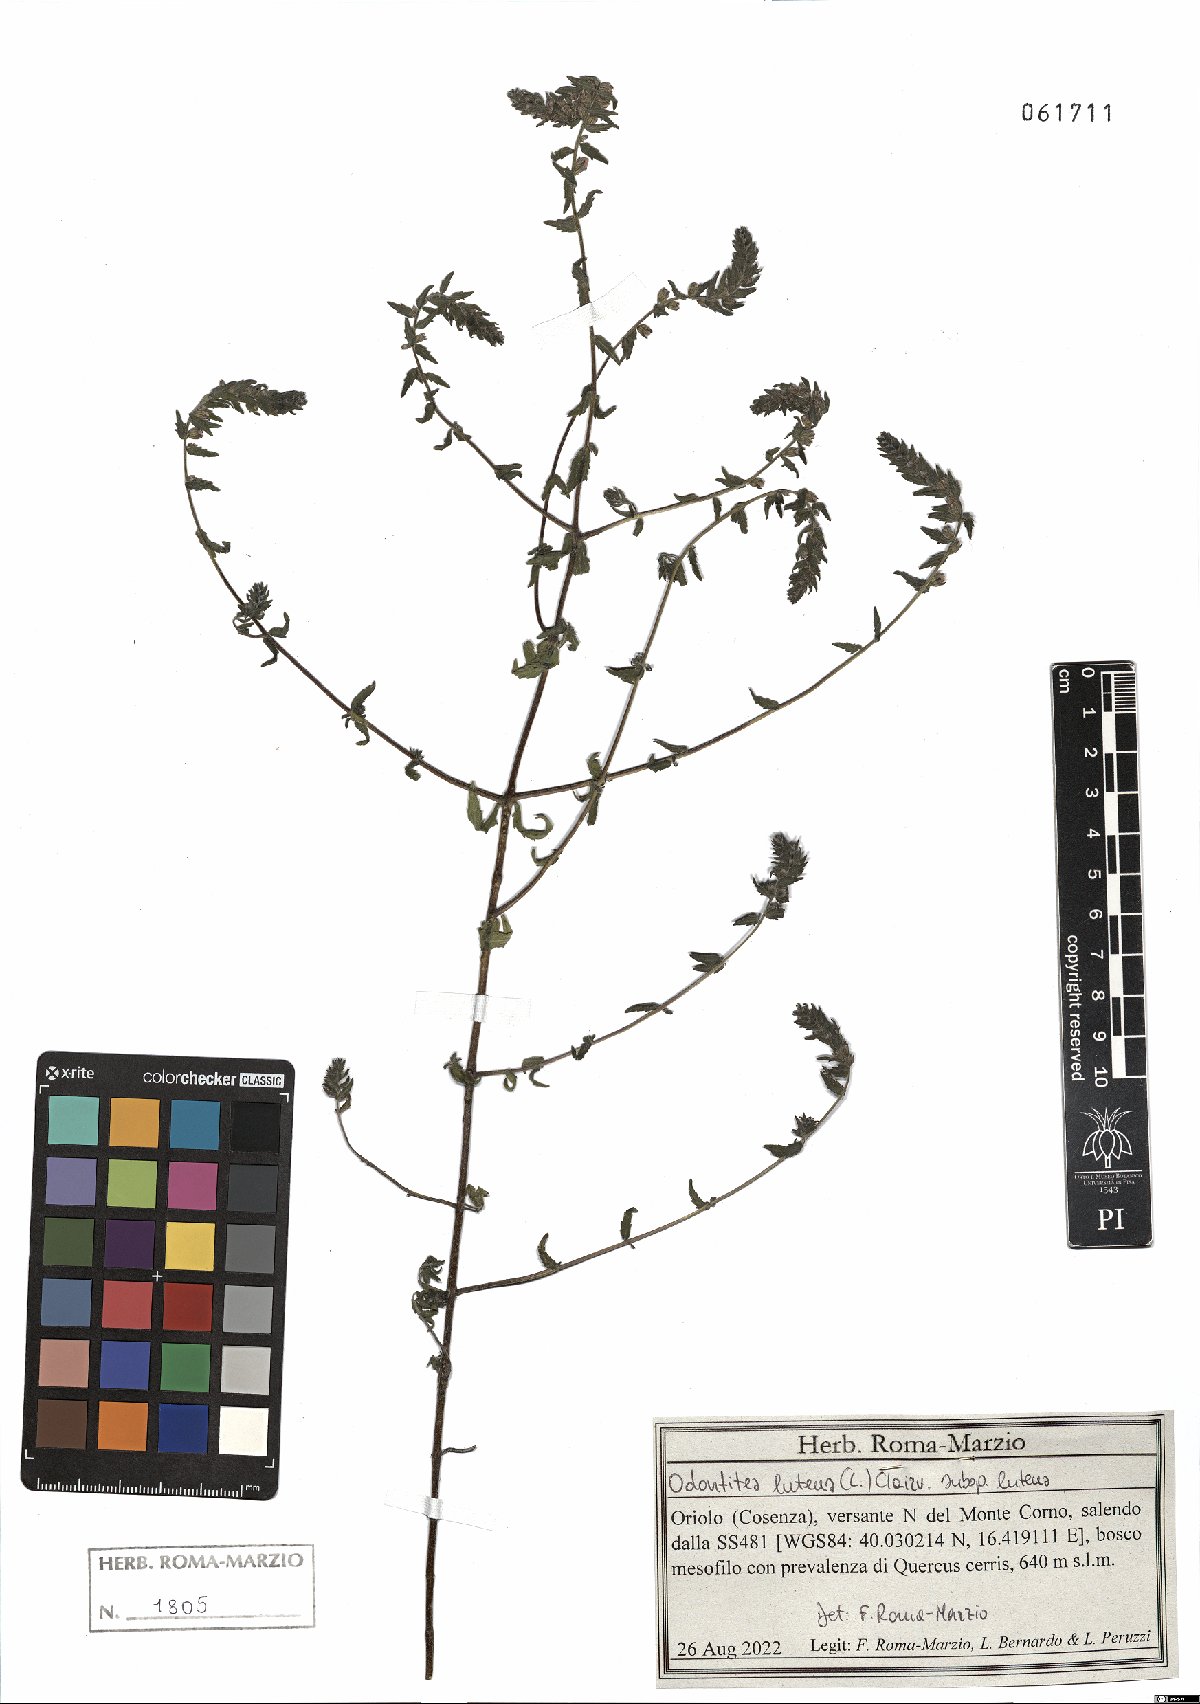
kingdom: Plantae
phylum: Tracheophyta
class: Magnoliopsida
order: Lamiales
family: Orobanchaceae
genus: Odontites
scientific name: Odontites luteus
